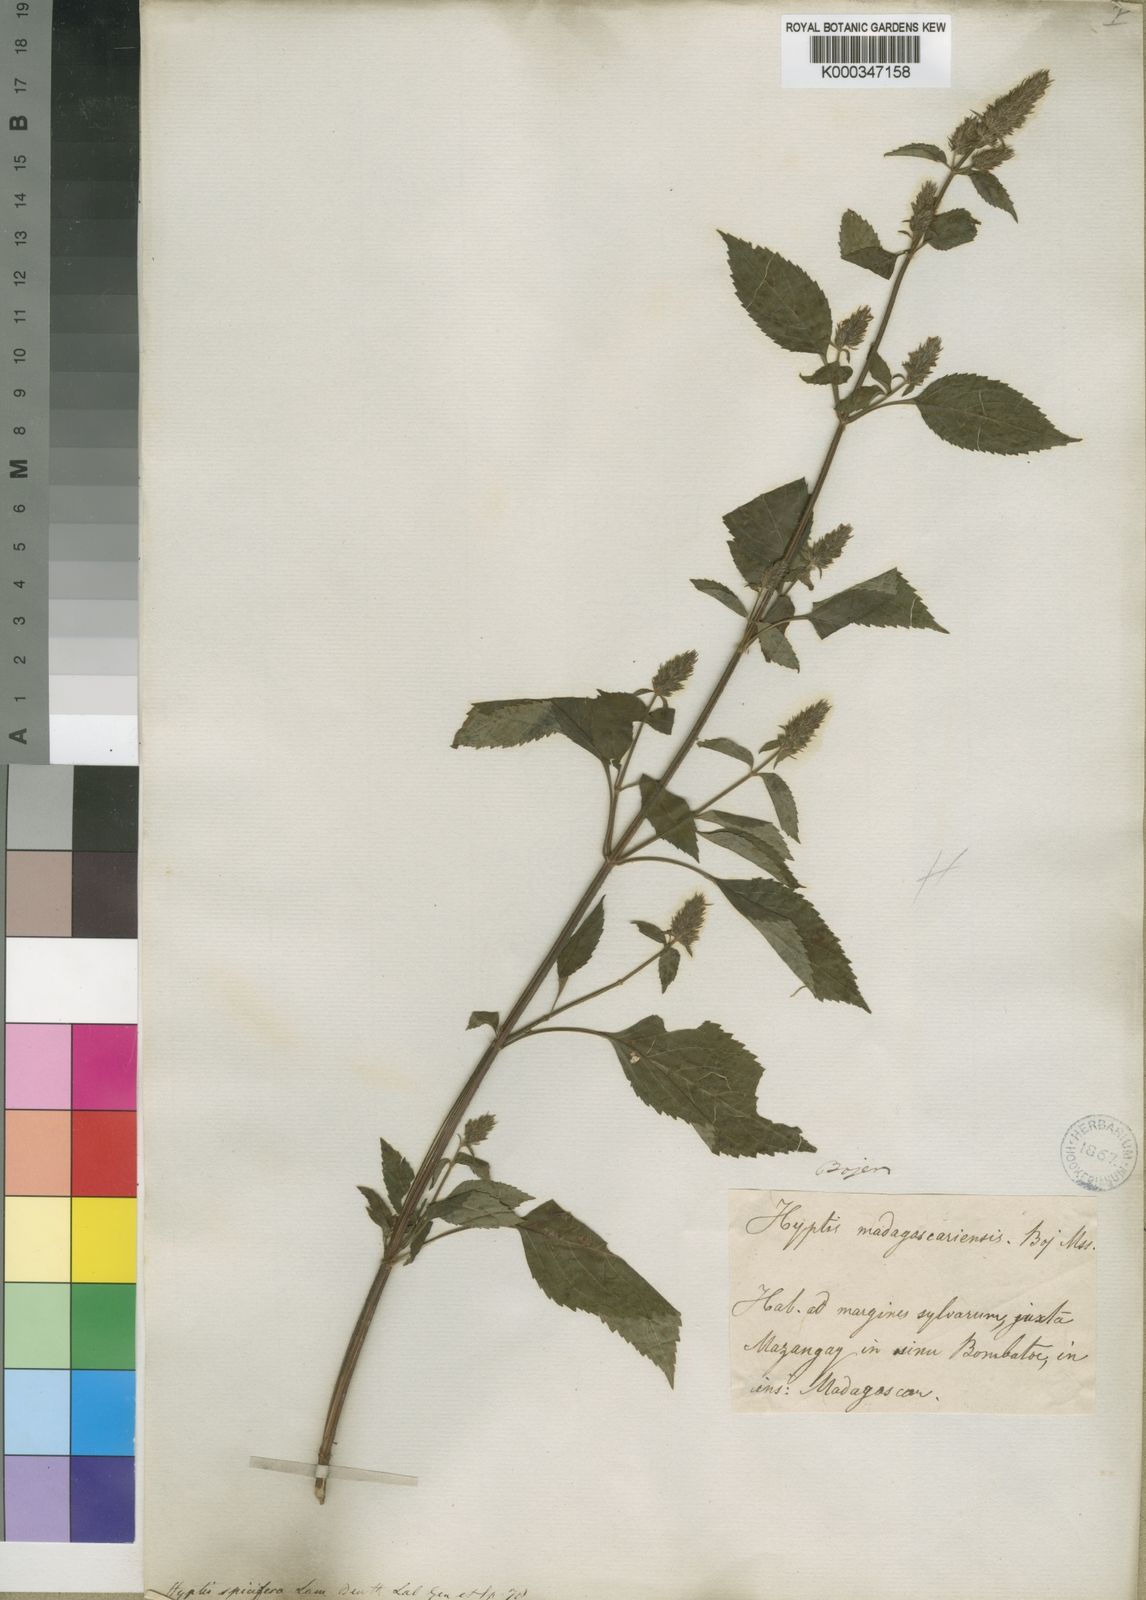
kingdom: Plantae
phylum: Tracheophyta
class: Magnoliopsida
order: Lamiales
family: Lamiaceae
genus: Cantinoa
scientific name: Cantinoa americana
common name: Black-sesame
